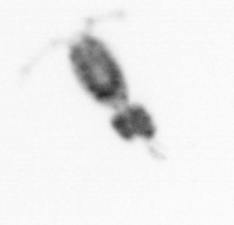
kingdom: Animalia
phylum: Arthropoda
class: Copepoda
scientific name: Copepoda
